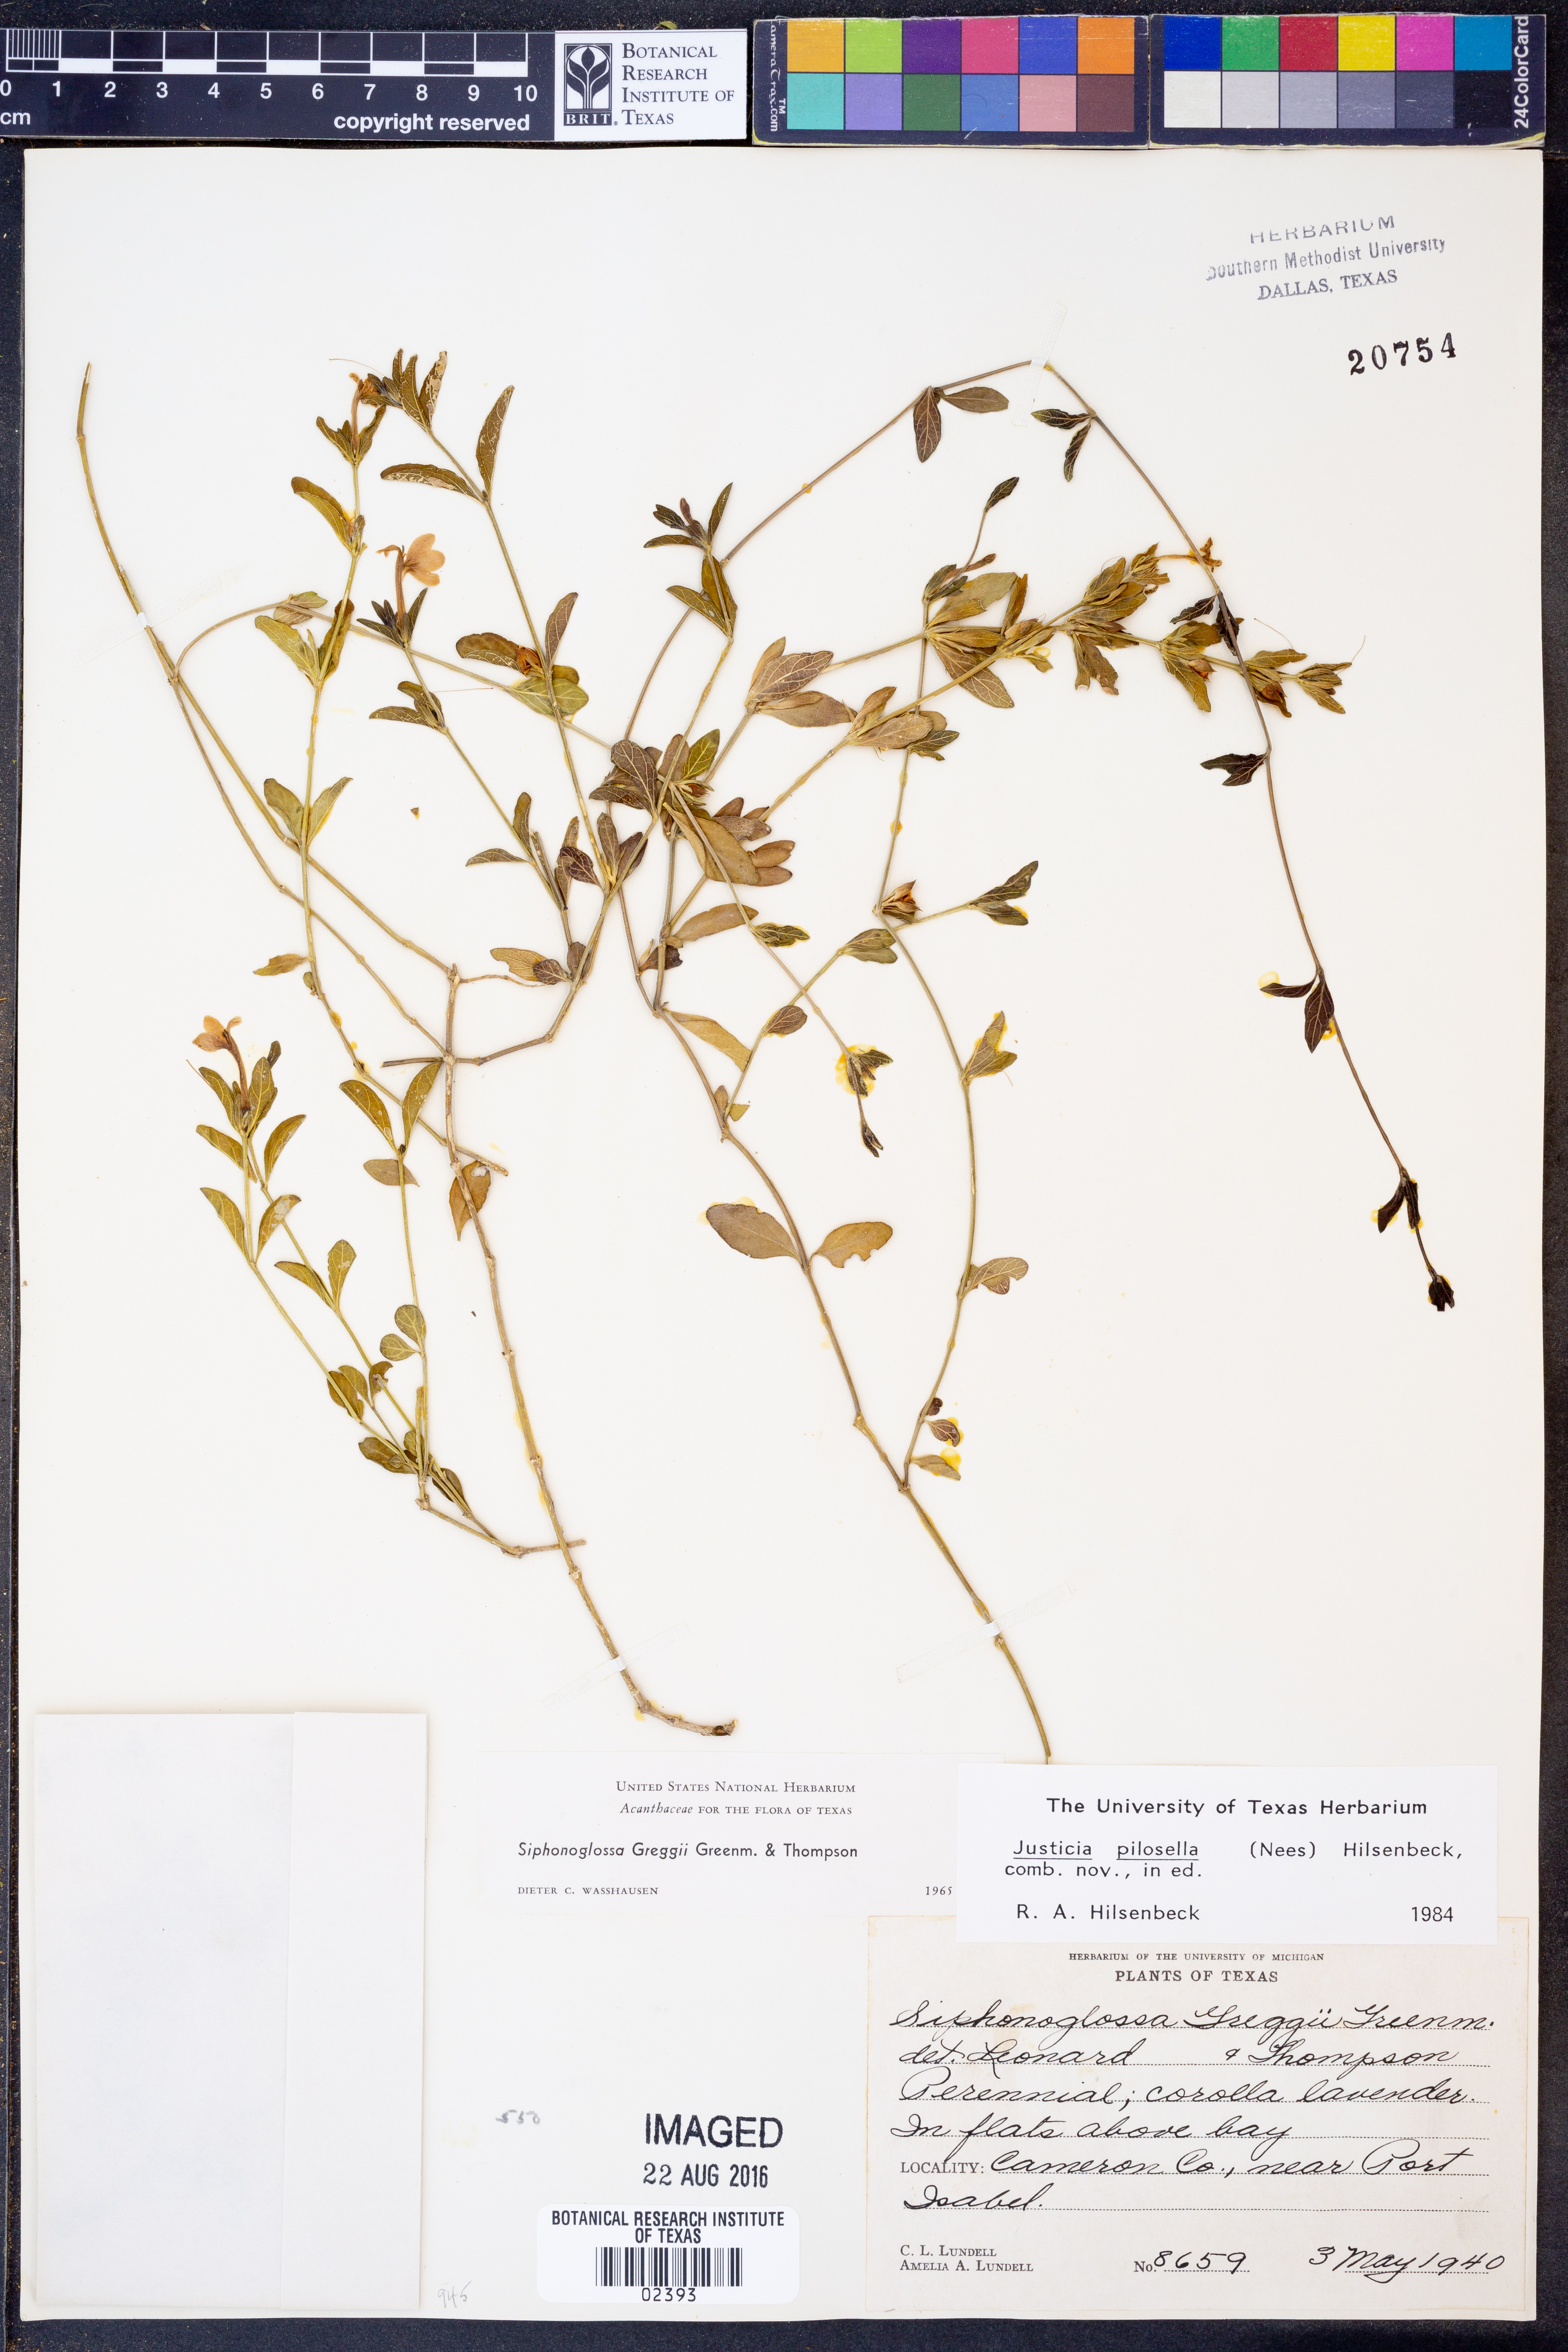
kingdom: Plantae
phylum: Tracheophyta
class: Magnoliopsida
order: Lamiales
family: Acanthaceae
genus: Justicia
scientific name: Justicia pilosella
